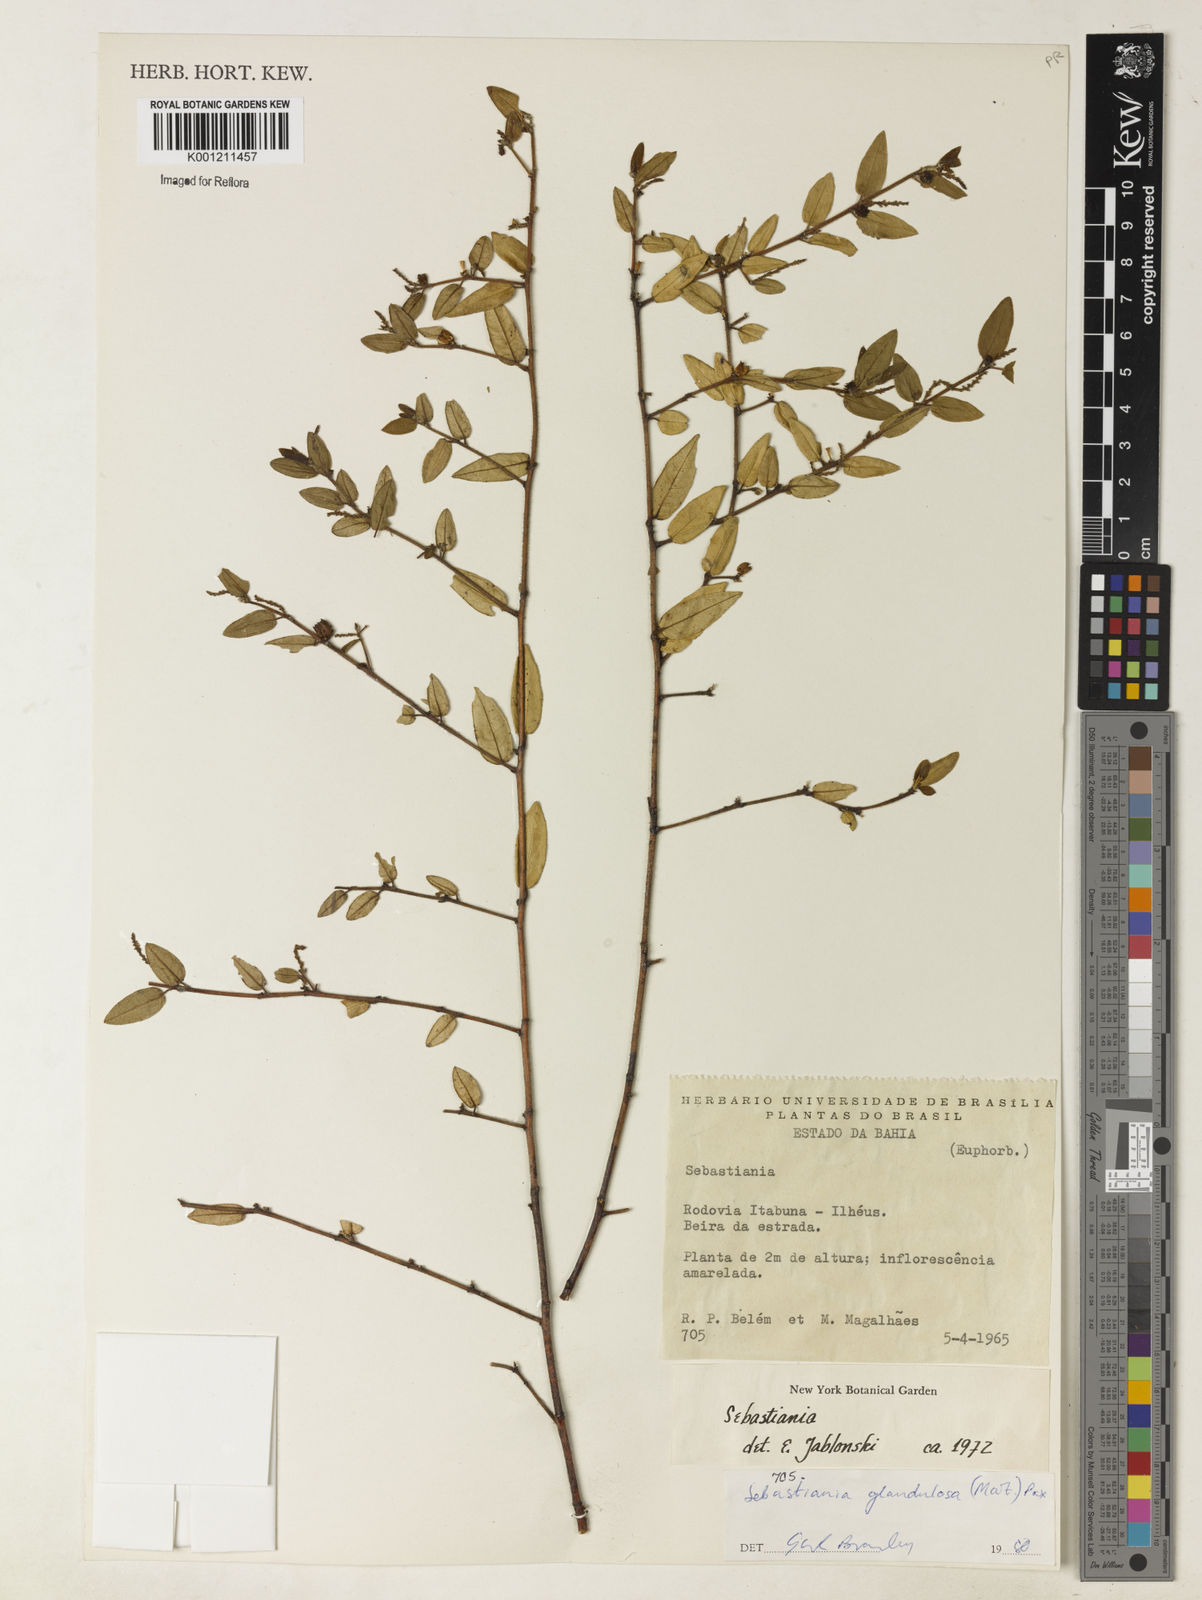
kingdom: Plantae
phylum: Tracheophyta
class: Magnoliopsida
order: Malpighiales
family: Euphorbiaceae
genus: Microstachys
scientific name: Microstachys glandulosa
